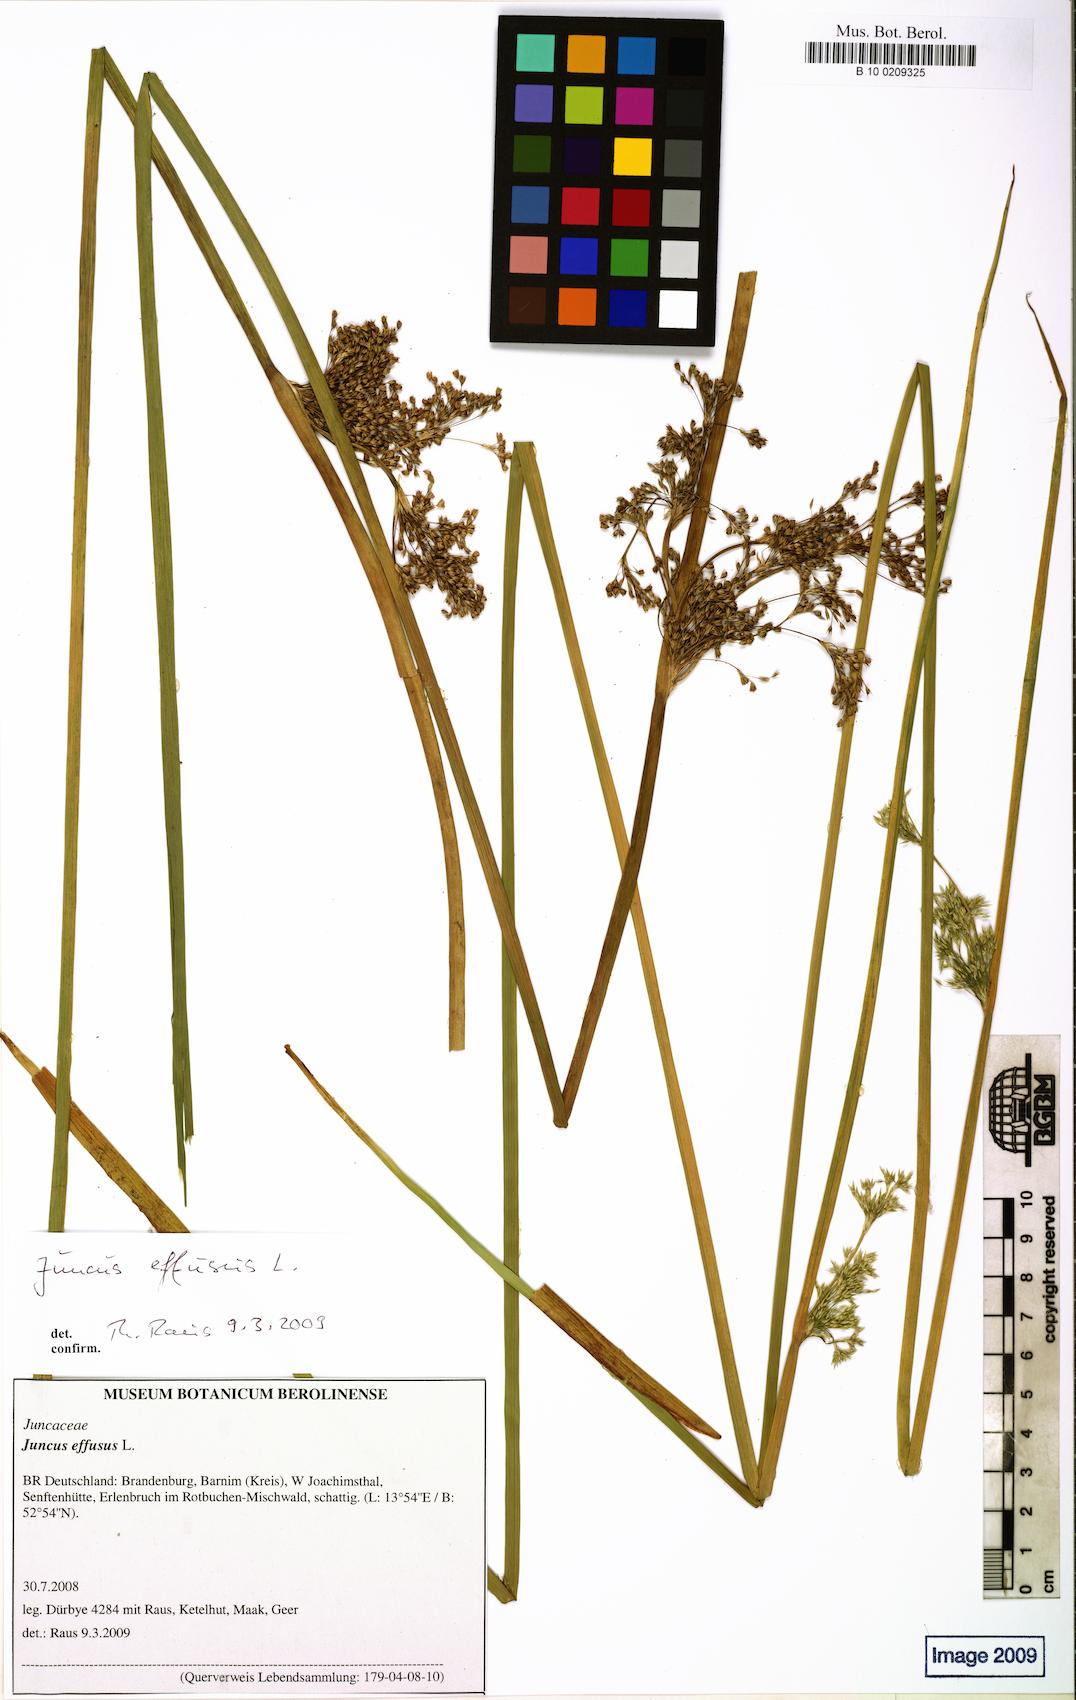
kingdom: Plantae
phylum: Tracheophyta
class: Liliopsida
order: Poales
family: Juncaceae
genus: Juncus
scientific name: Juncus effusus
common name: Soft rush
